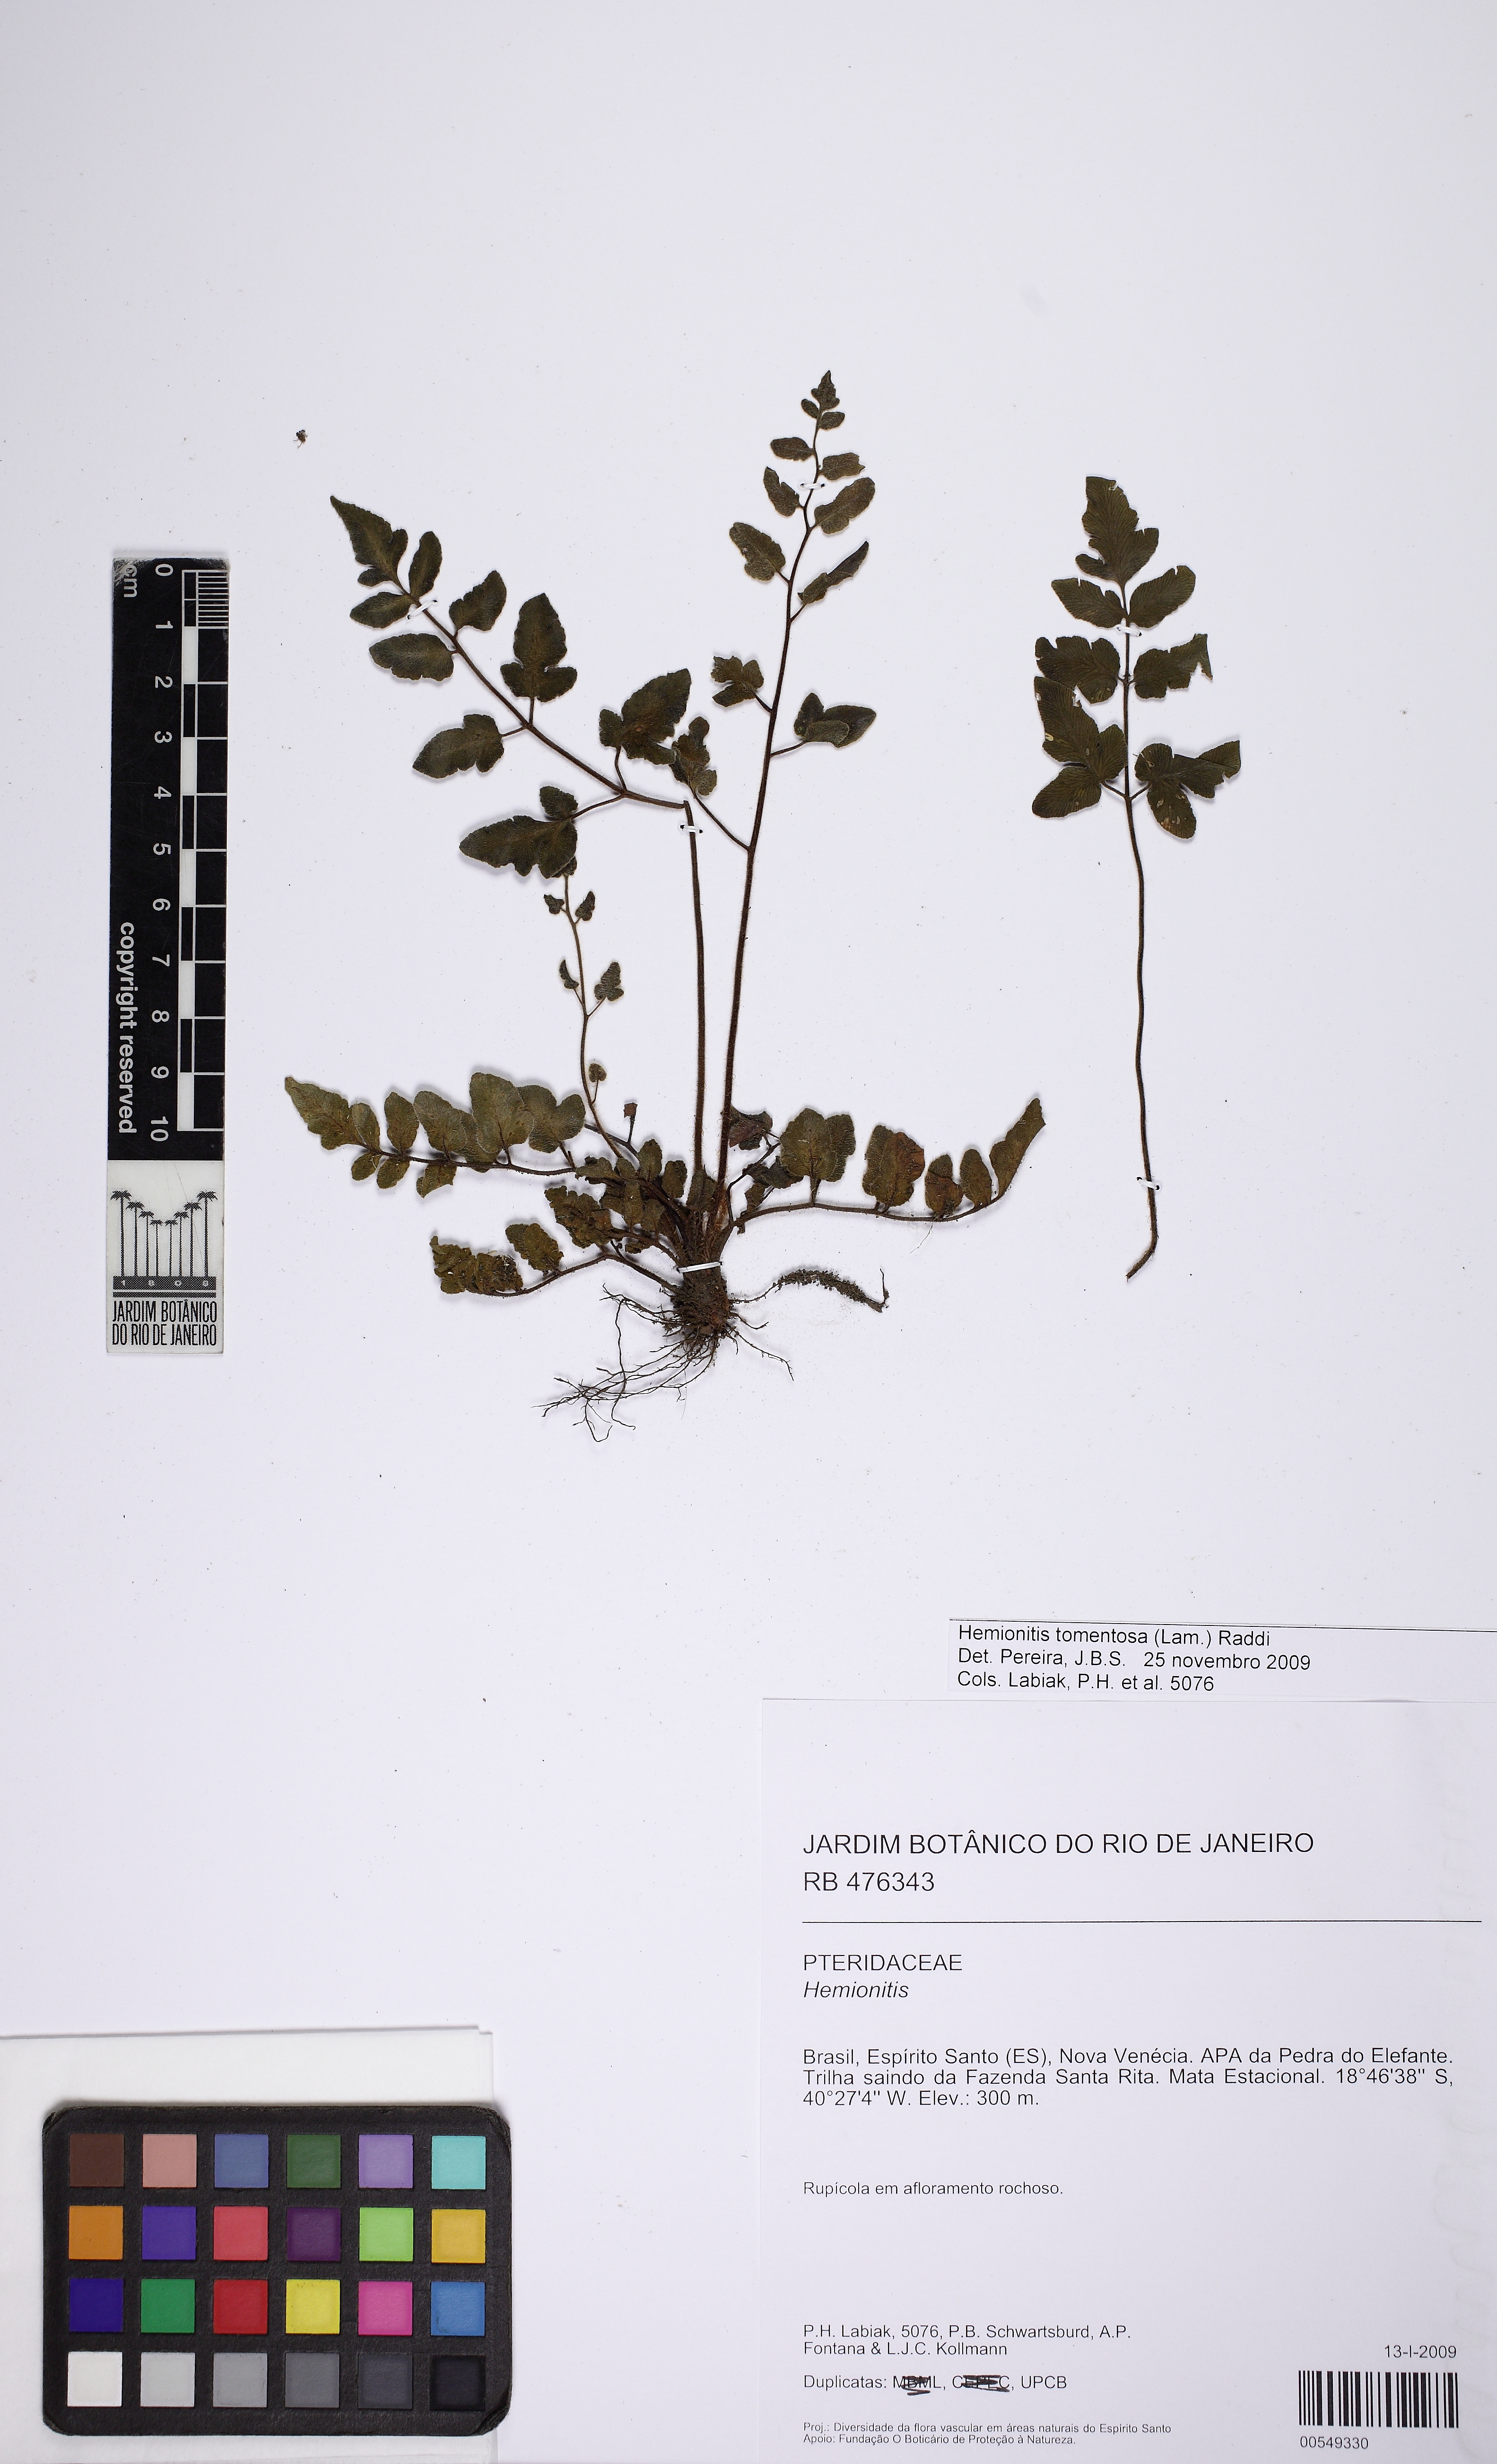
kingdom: Plantae
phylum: Tracheophyta
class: Polypodiopsida
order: Polypodiales
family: Pteridaceae
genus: Hemionitis
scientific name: Hemionitis tomentosa
